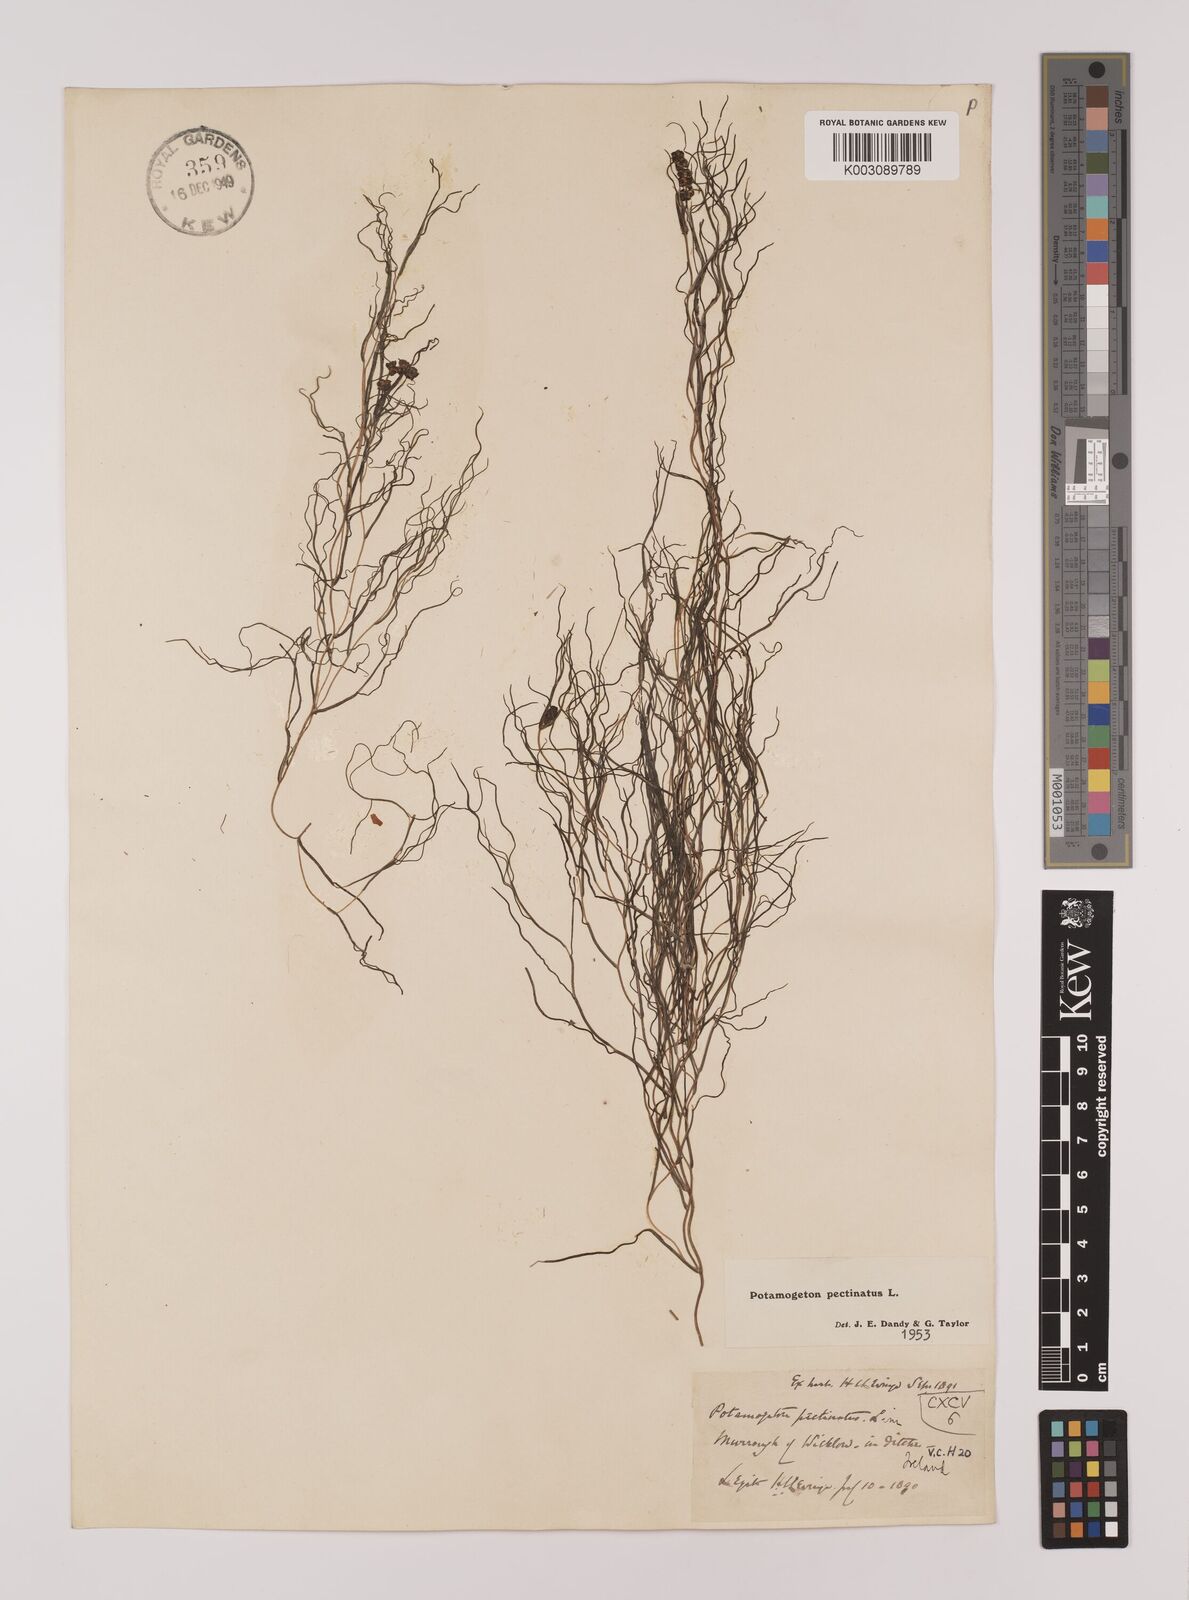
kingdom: Plantae
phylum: Tracheophyta
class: Liliopsida
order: Alismatales
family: Potamogetonaceae
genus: Stuckenia
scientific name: Stuckenia pectinata
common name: Sago pondweed
